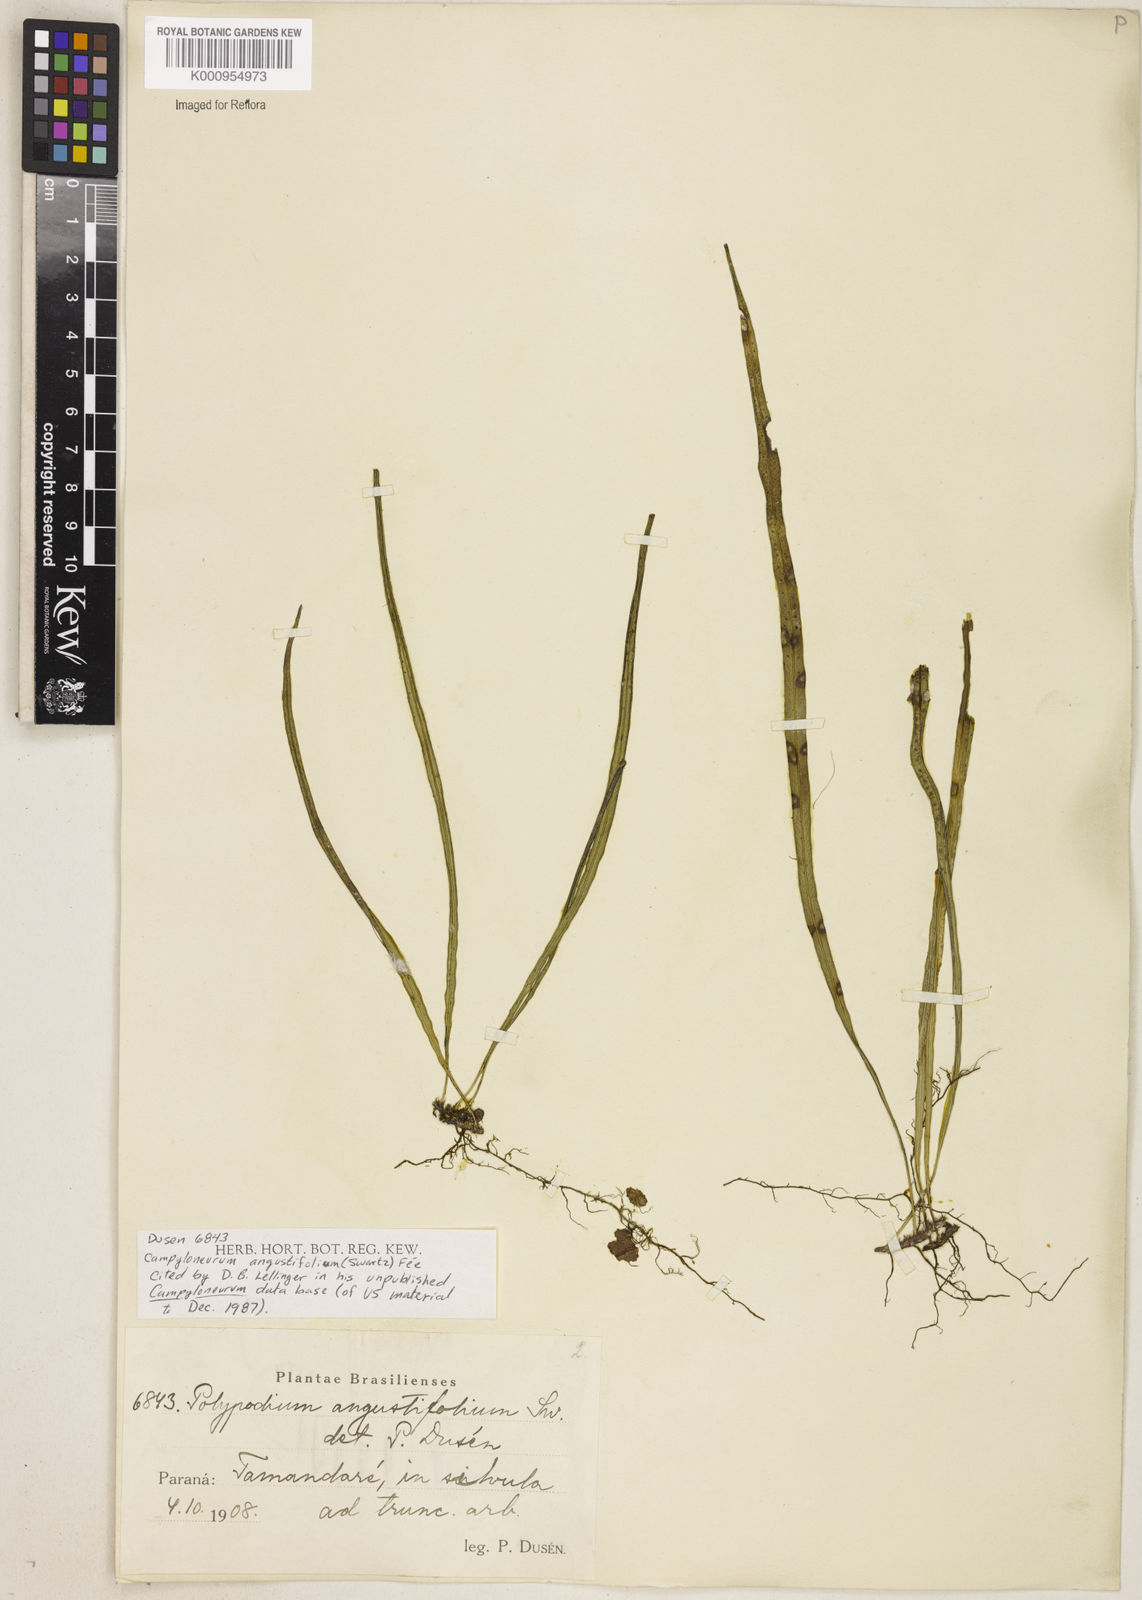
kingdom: Plantae
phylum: Tracheophyta
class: Polypodiopsida
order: Polypodiales
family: Polypodiaceae
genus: Campyloneurum
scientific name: Campyloneurum
